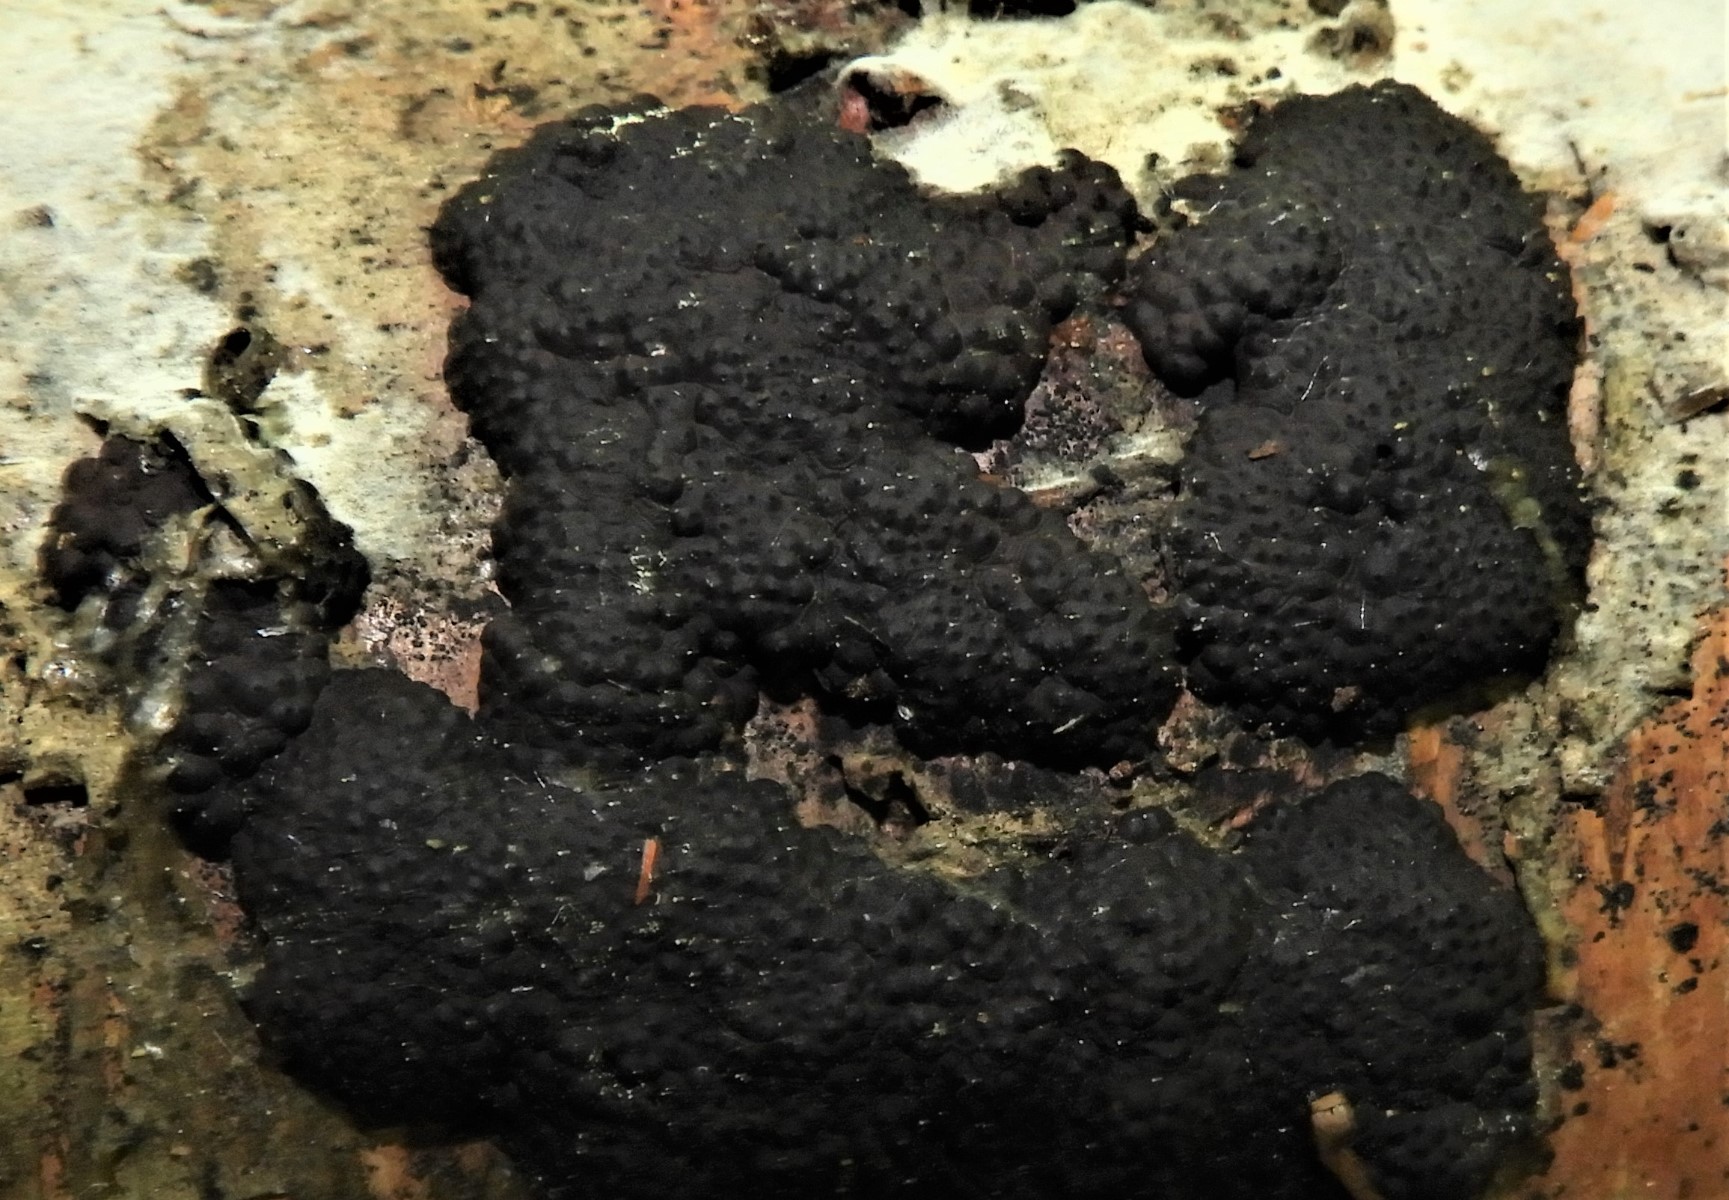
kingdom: Fungi
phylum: Ascomycota
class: Sordariomycetes
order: Xylariales
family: Hypoxylaceae
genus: Jackrogersella
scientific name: Jackrogersella multiformis
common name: foranderlig kulbær
